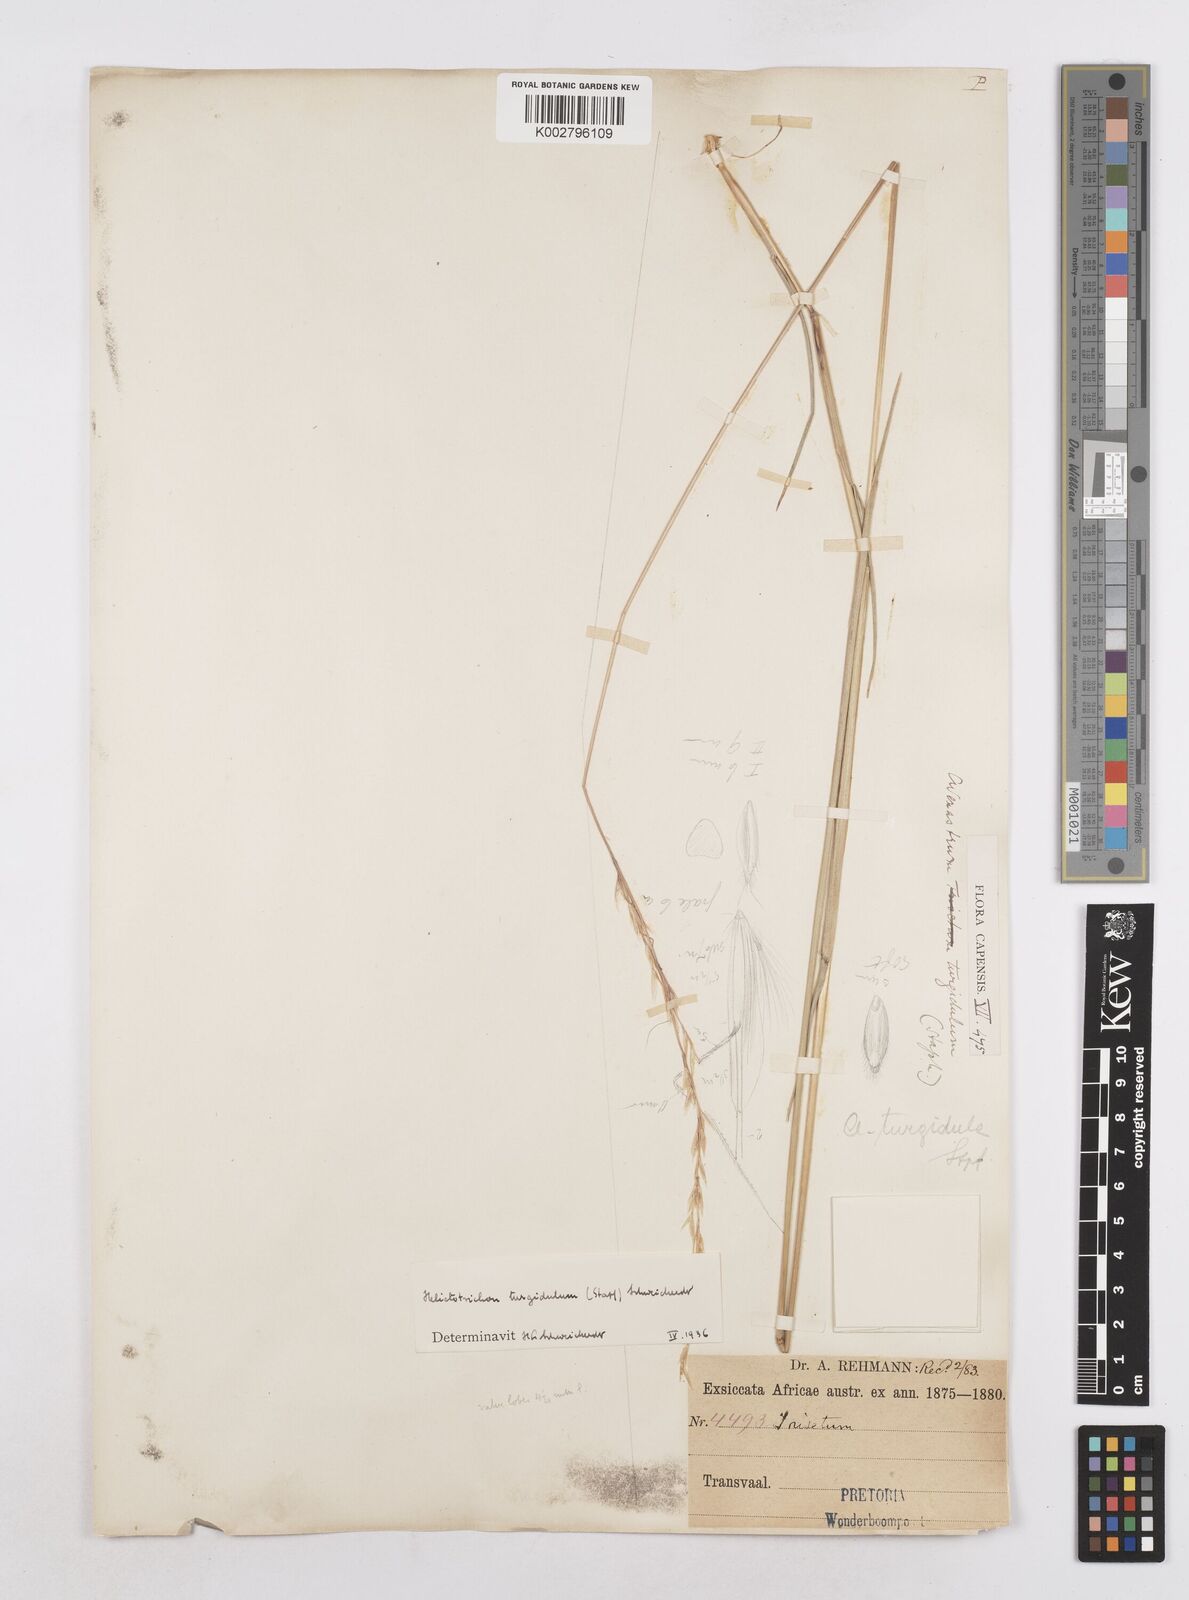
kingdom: Plantae
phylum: Tracheophyta
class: Liliopsida
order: Poales
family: Poaceae
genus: Trisetopsis
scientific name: Trisetopsis imberbis
